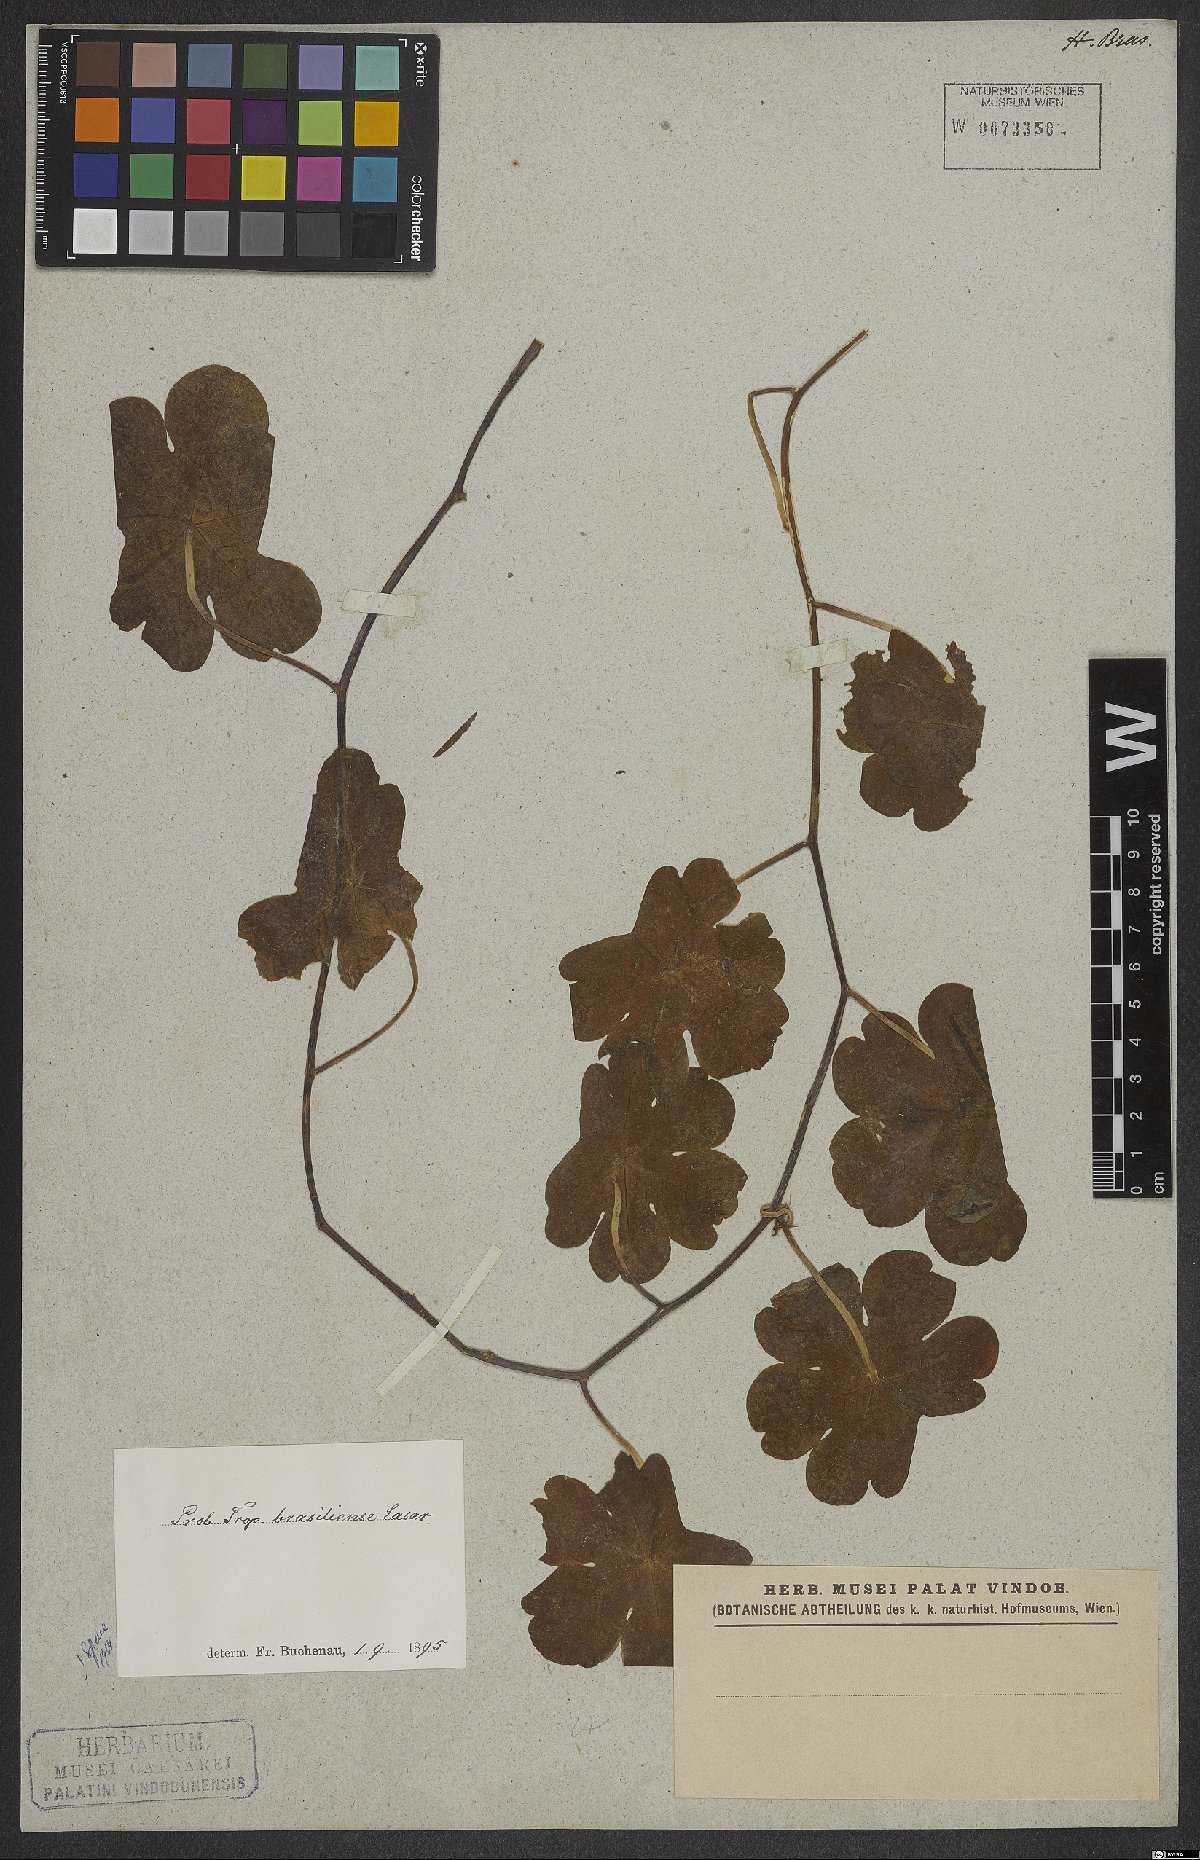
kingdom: Plantae
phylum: Tracheophyta
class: Magnoliopsida
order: Brassicales
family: Tropaeolaceae
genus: Tropaeolum
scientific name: Tropaeolum brasiliense
